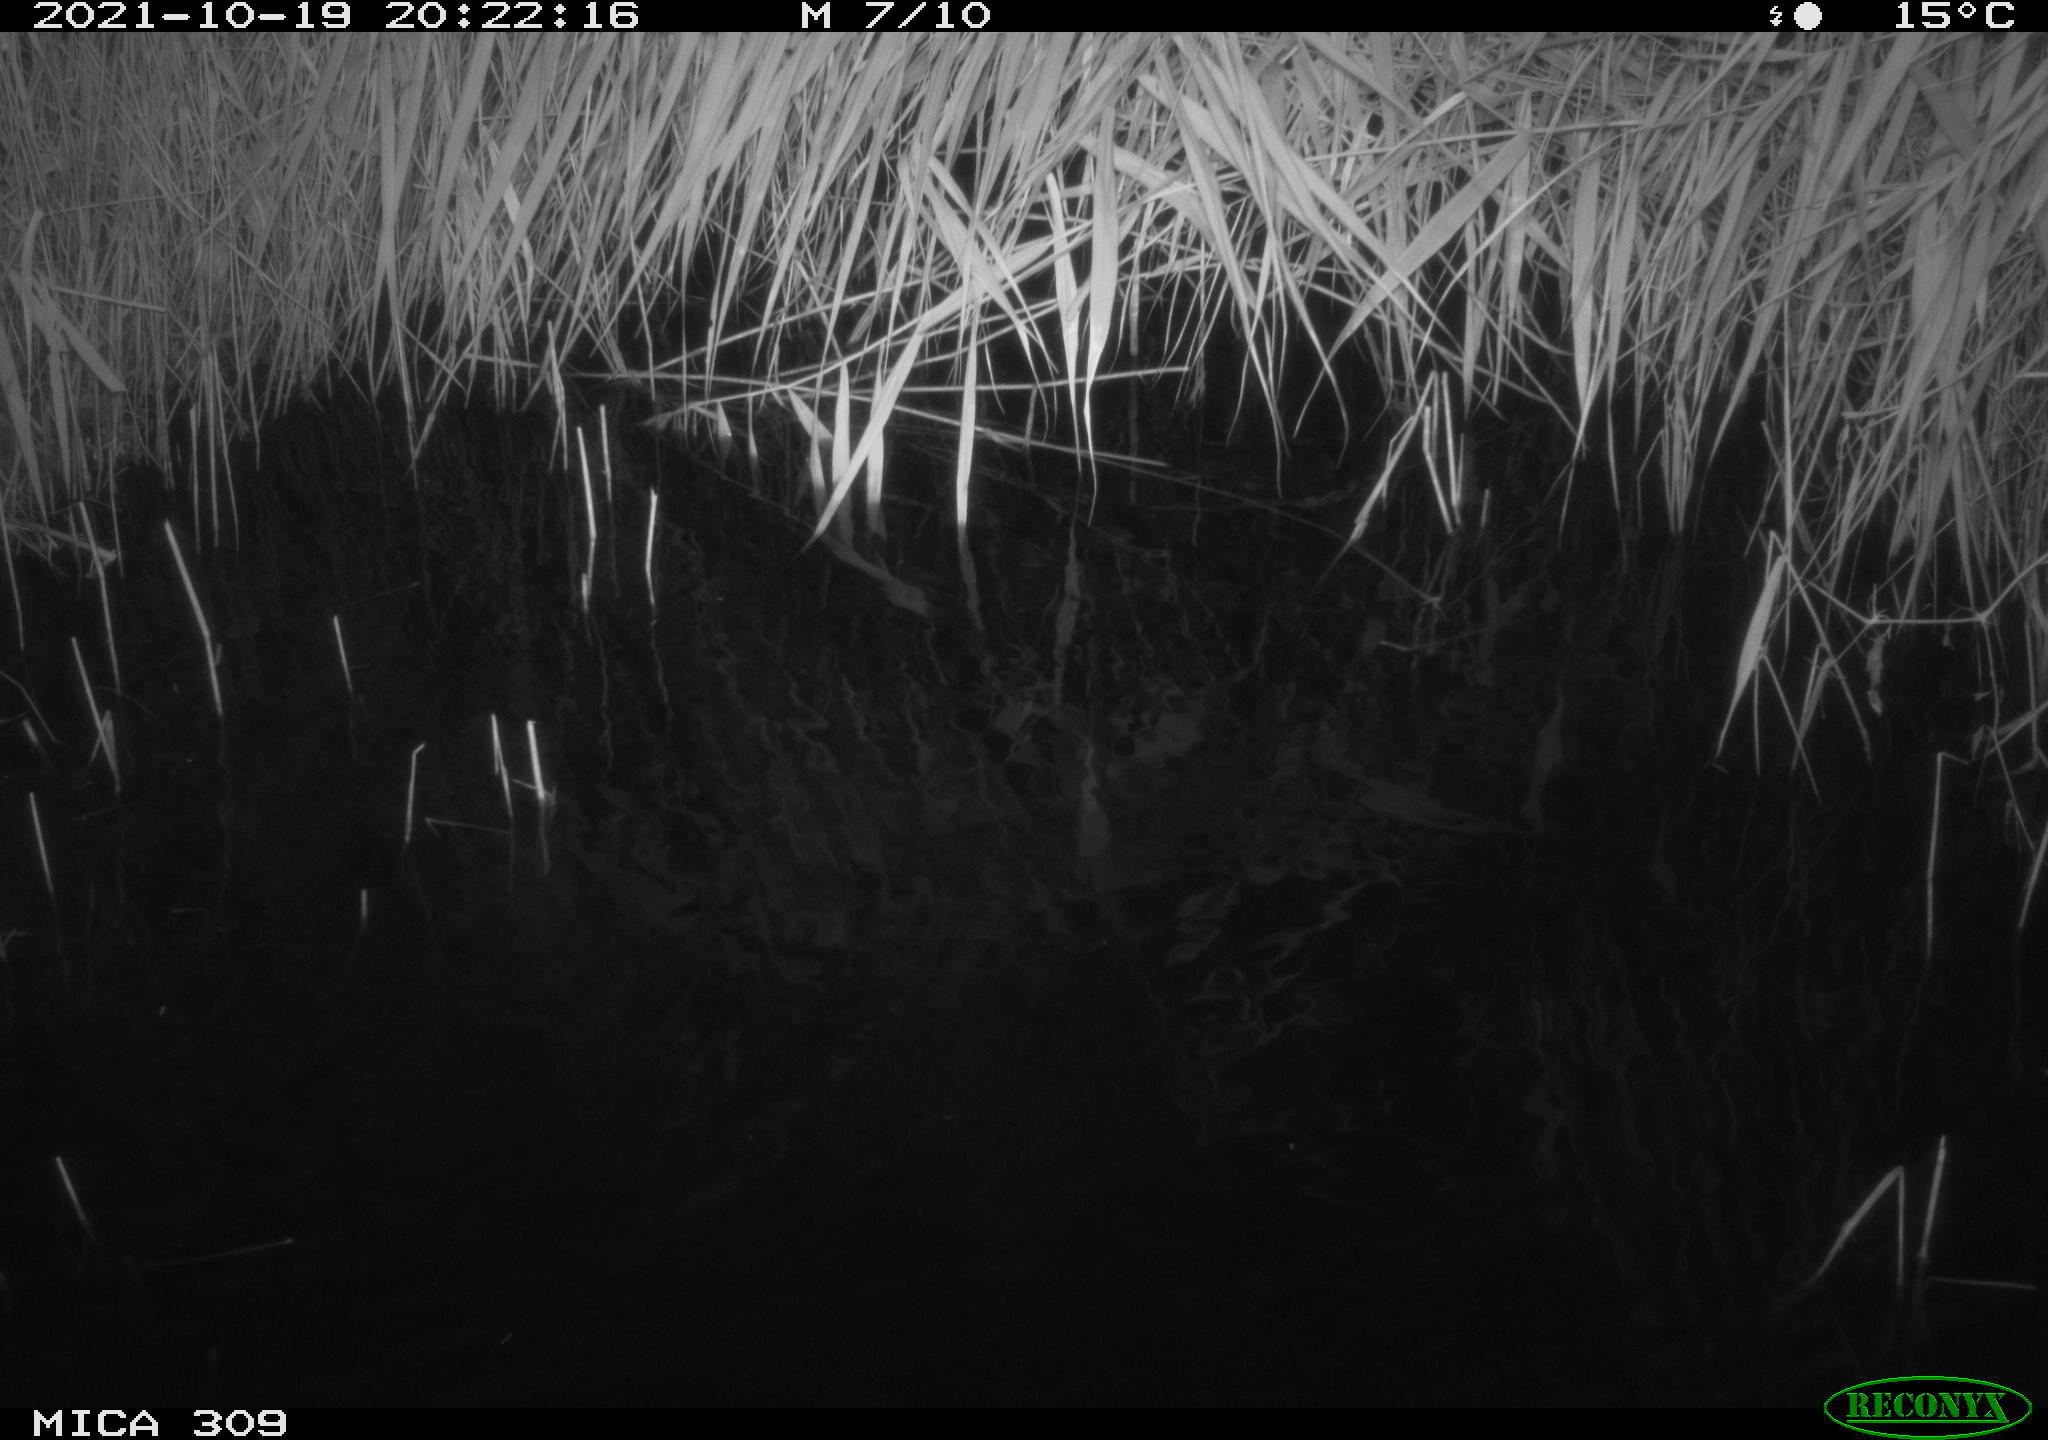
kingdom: Animalia
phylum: Chordata
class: Mammalia
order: Rodentia
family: Muridae
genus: Rattus
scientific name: Rattus norvegicus
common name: Brown rat
